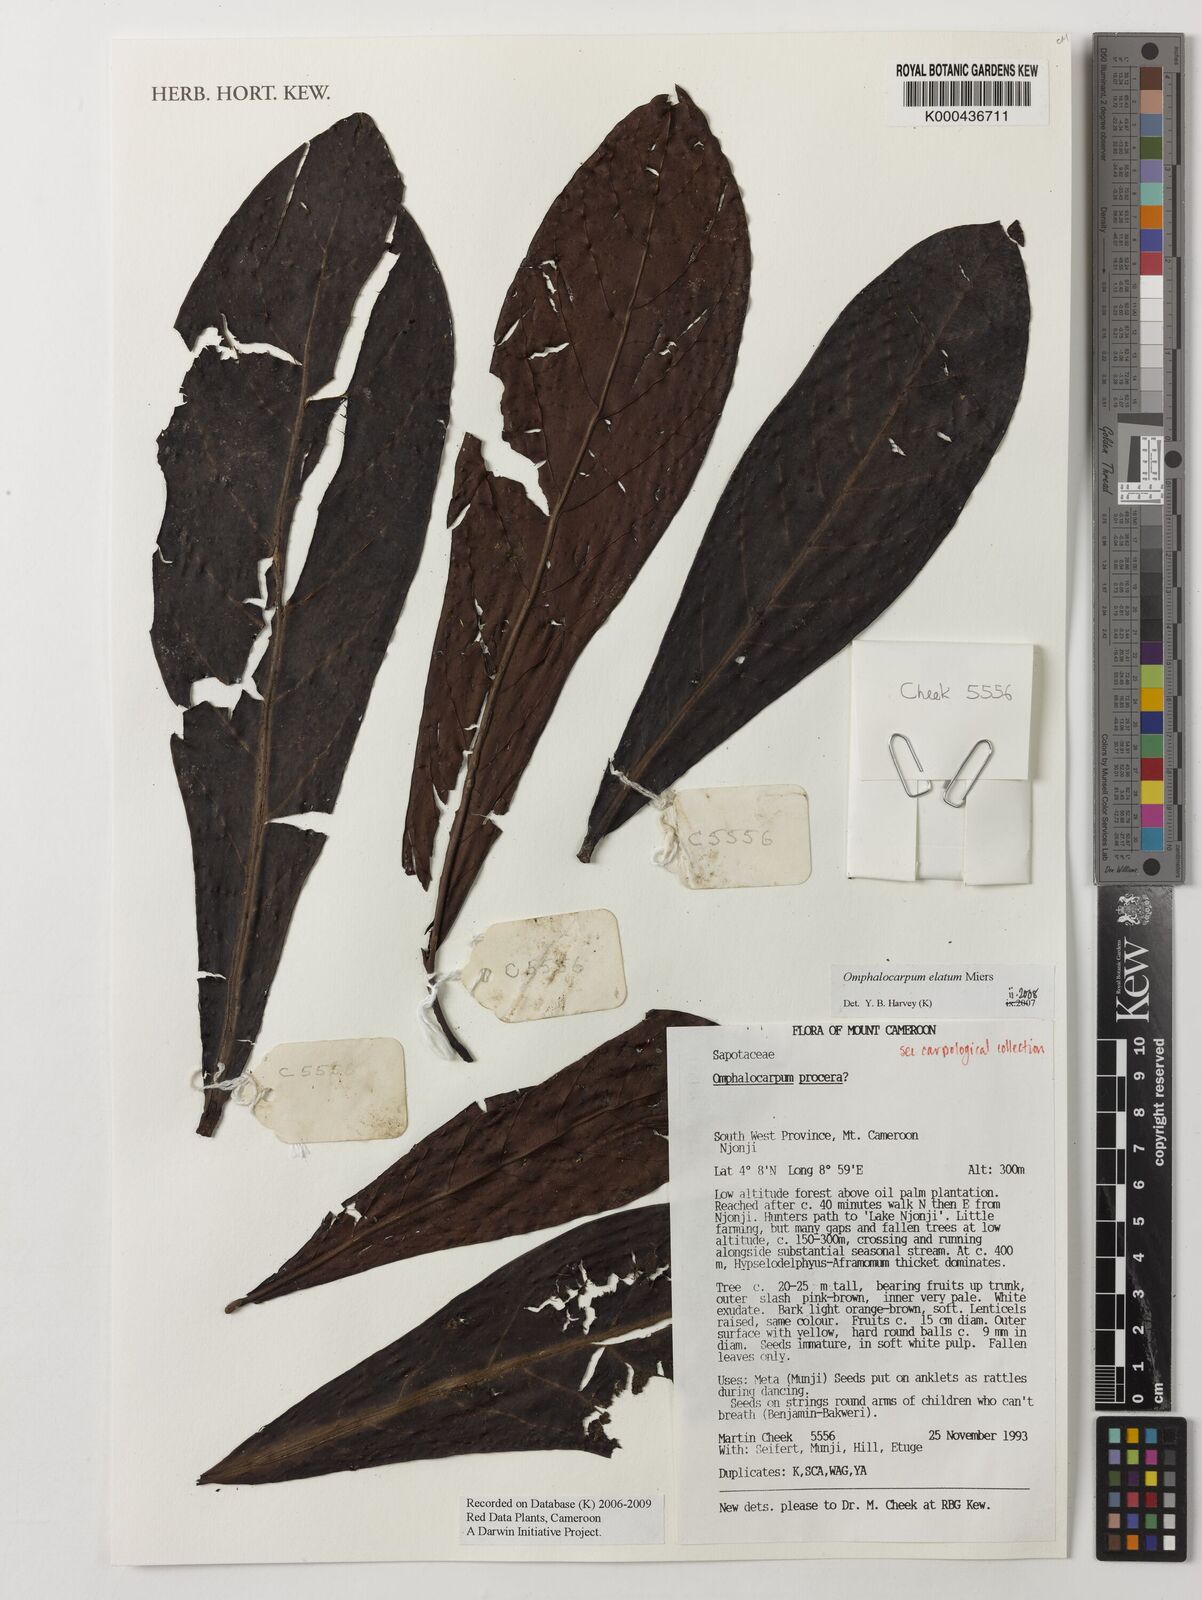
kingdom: Plantae
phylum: Tracheophyta
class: Magnoliopsida
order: Ericales
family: Sapotaceae
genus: Omphalocarpum
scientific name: Omphalocarpum elatum
